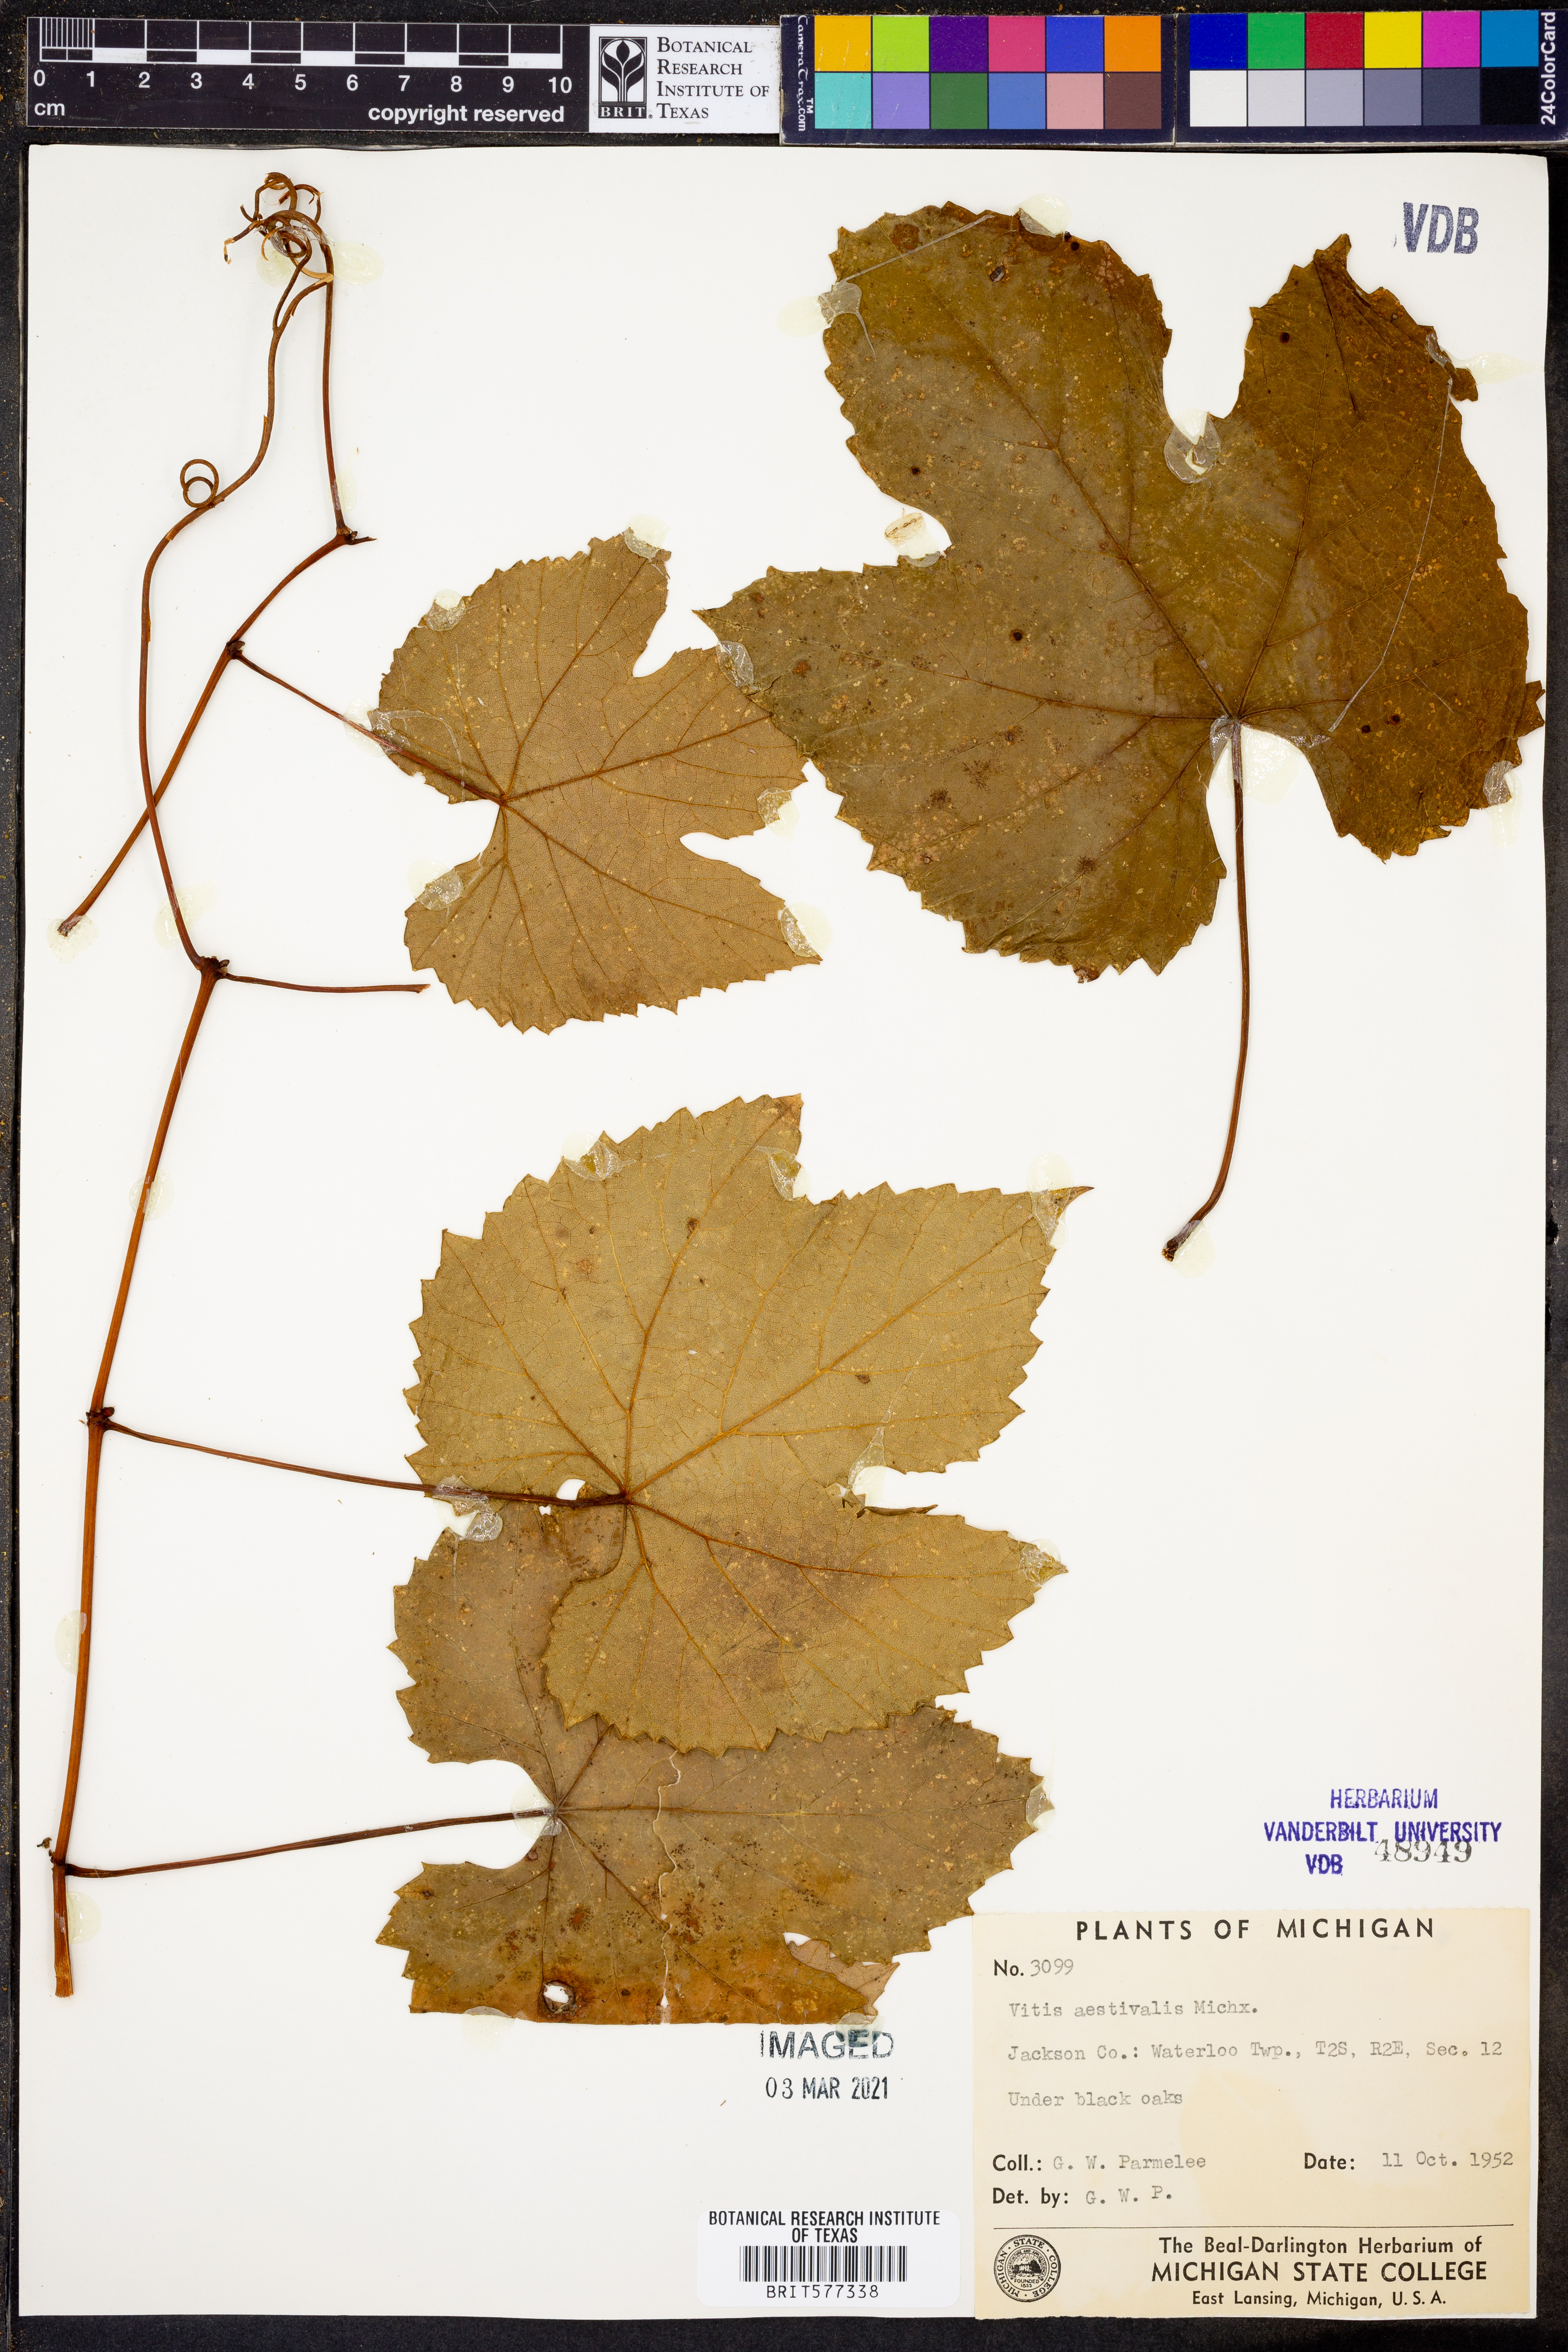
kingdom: Plantae
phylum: Tracheophyta
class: Magnoliopsida
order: Vitales
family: Vitaceae
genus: Vitis
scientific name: Vitis aestivalis
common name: Pigeon grape
